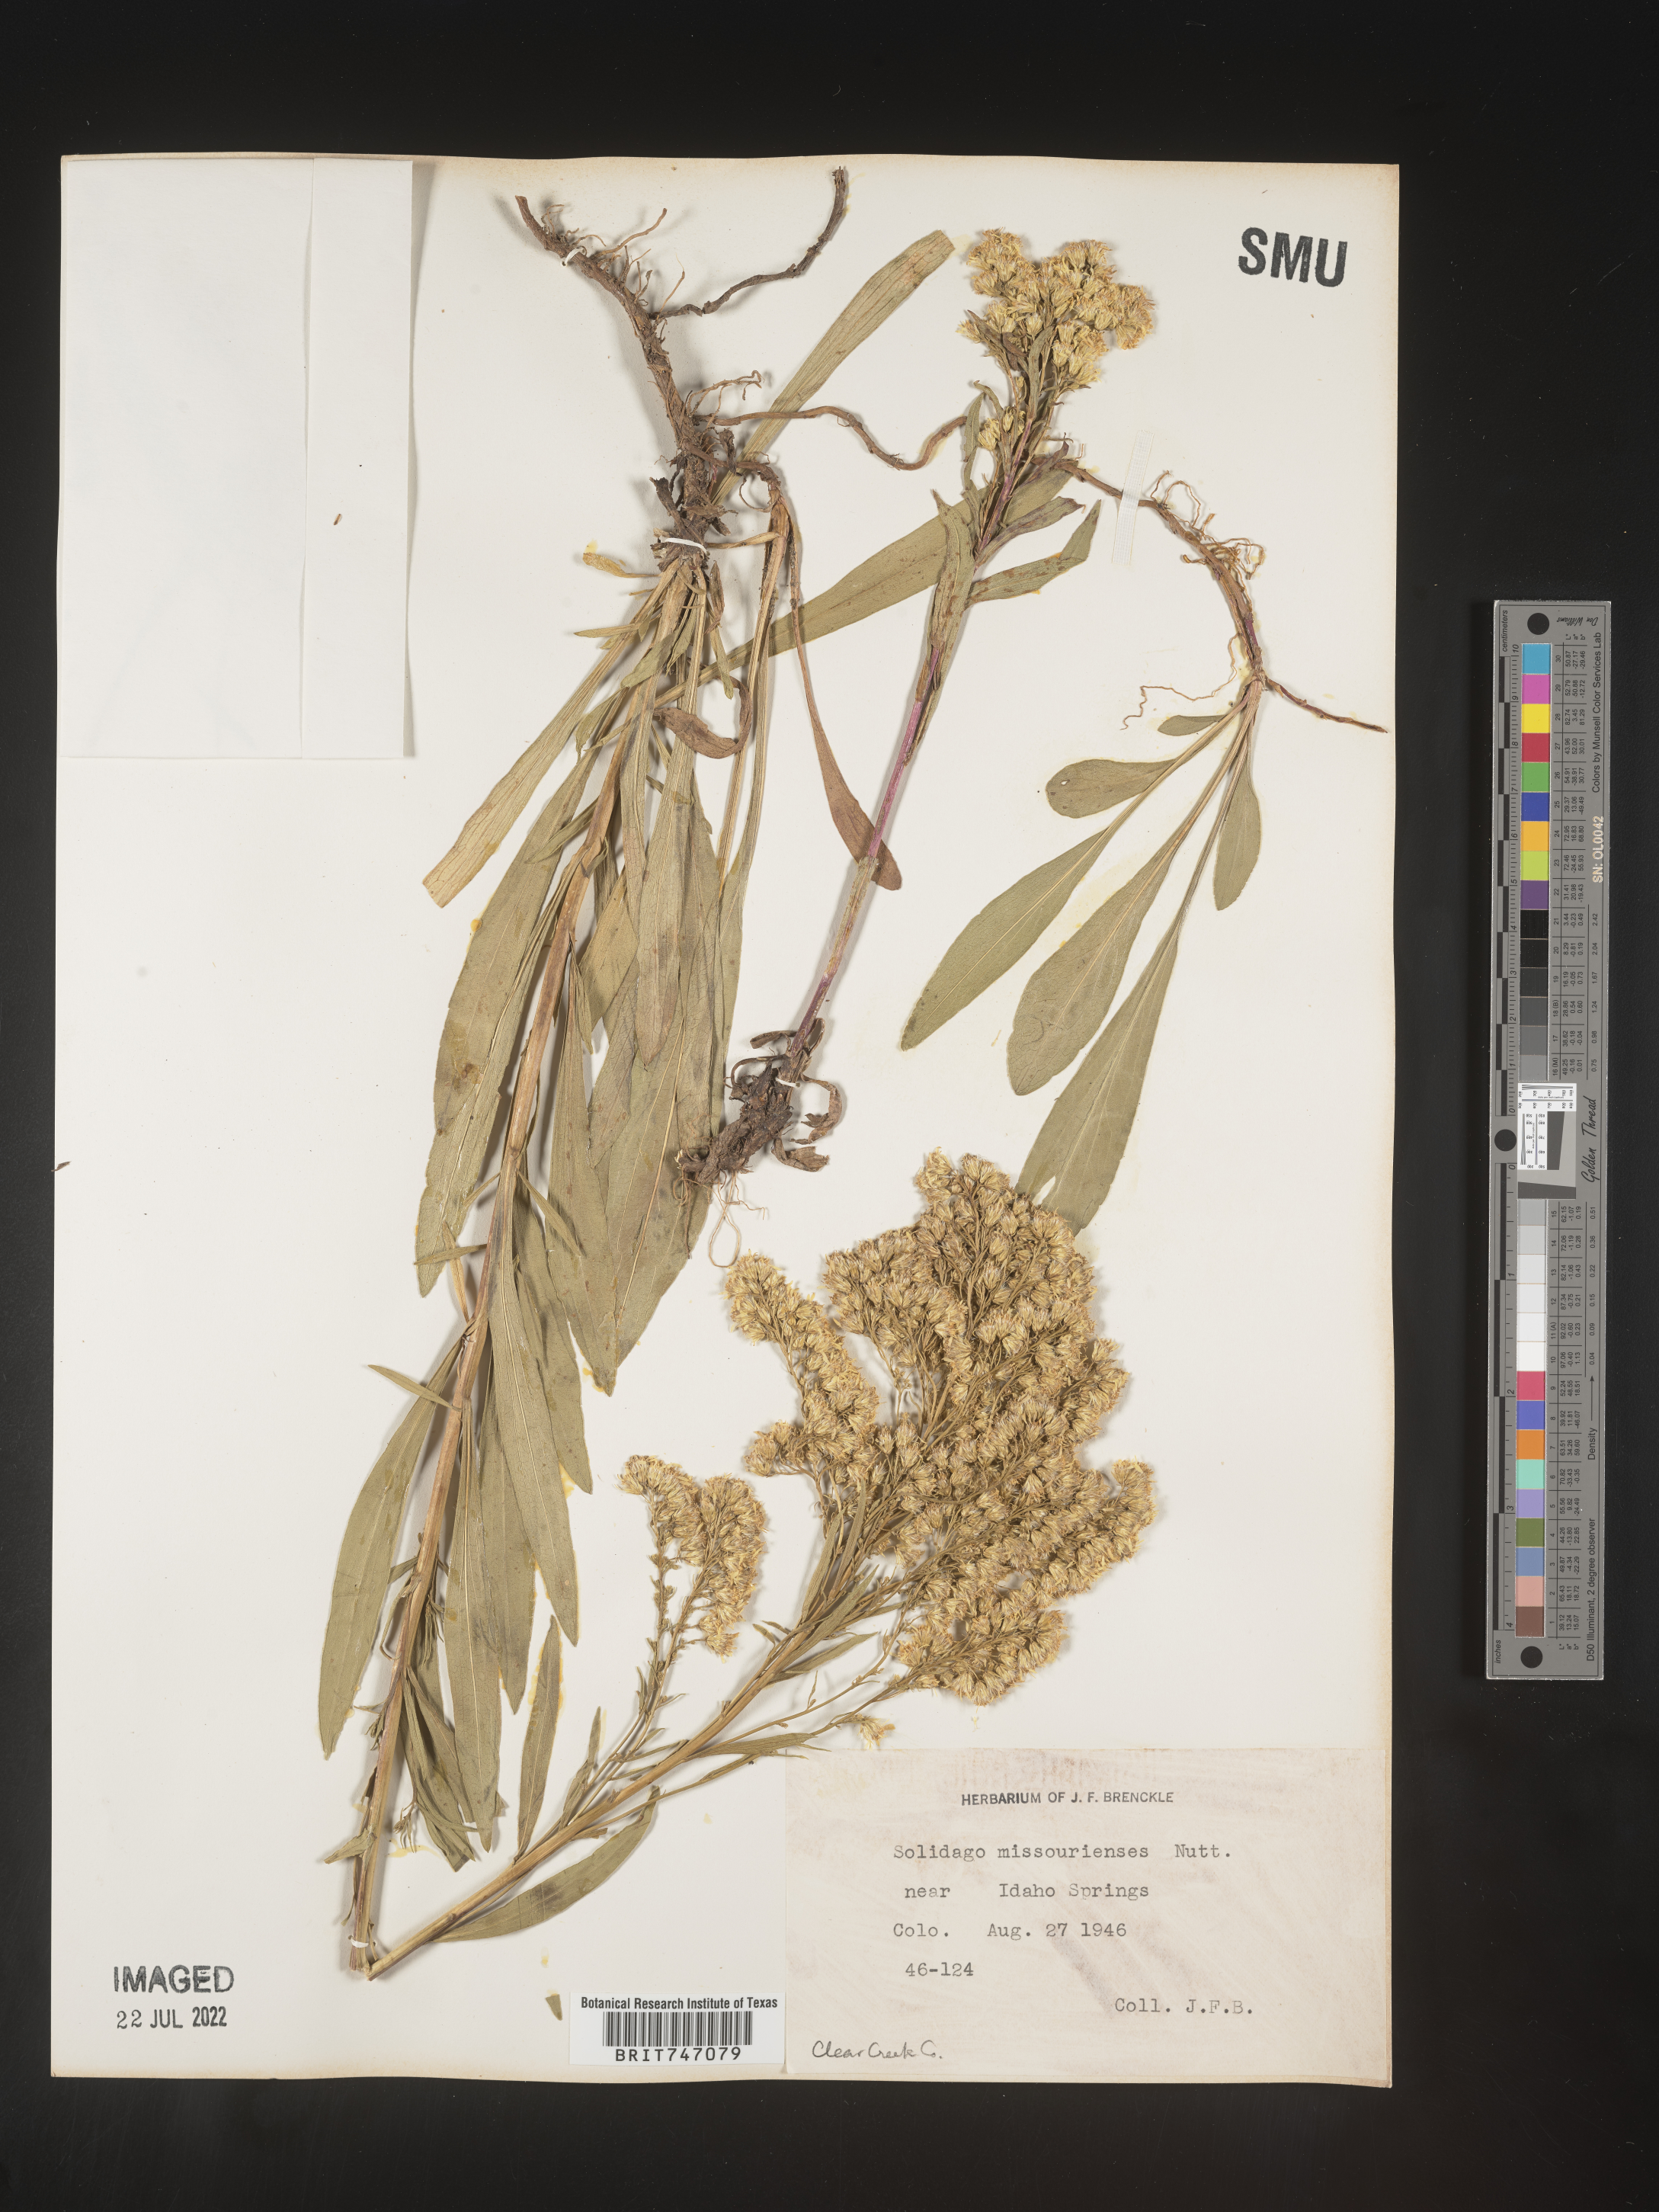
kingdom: Plantae
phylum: Tracheophyta
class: Magnoliopsida
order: Asterales
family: Asteraceae
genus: Solidago
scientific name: Solidago missouriensis
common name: Prairie goldenrod
